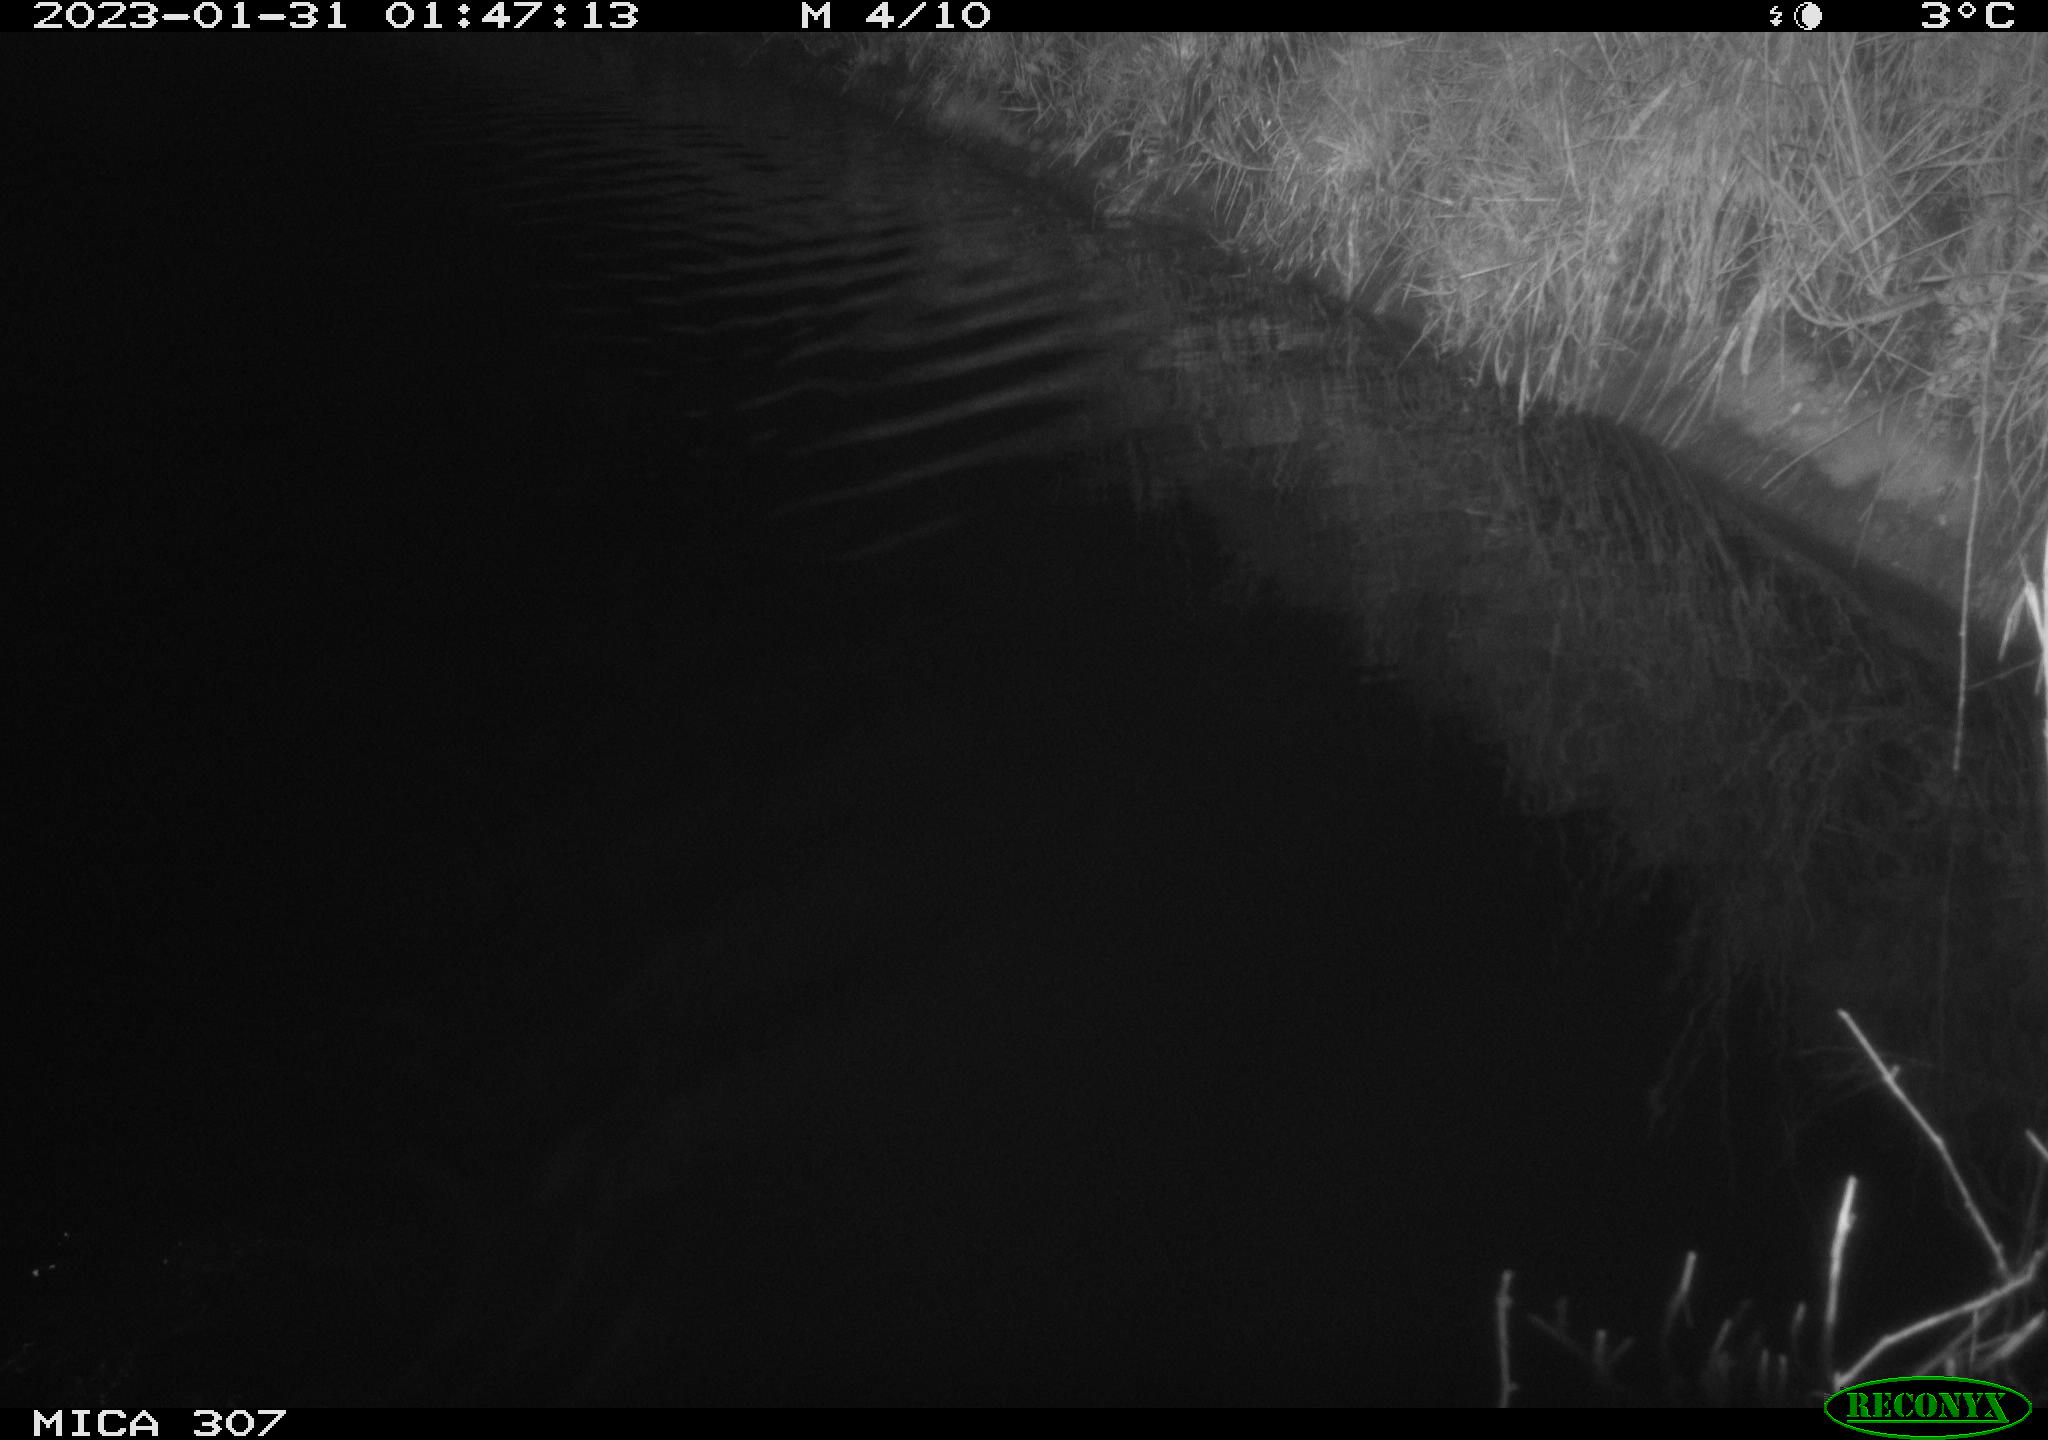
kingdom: Animalia
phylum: Chordata
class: Mammalia
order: Rodentia
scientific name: Rodentia
